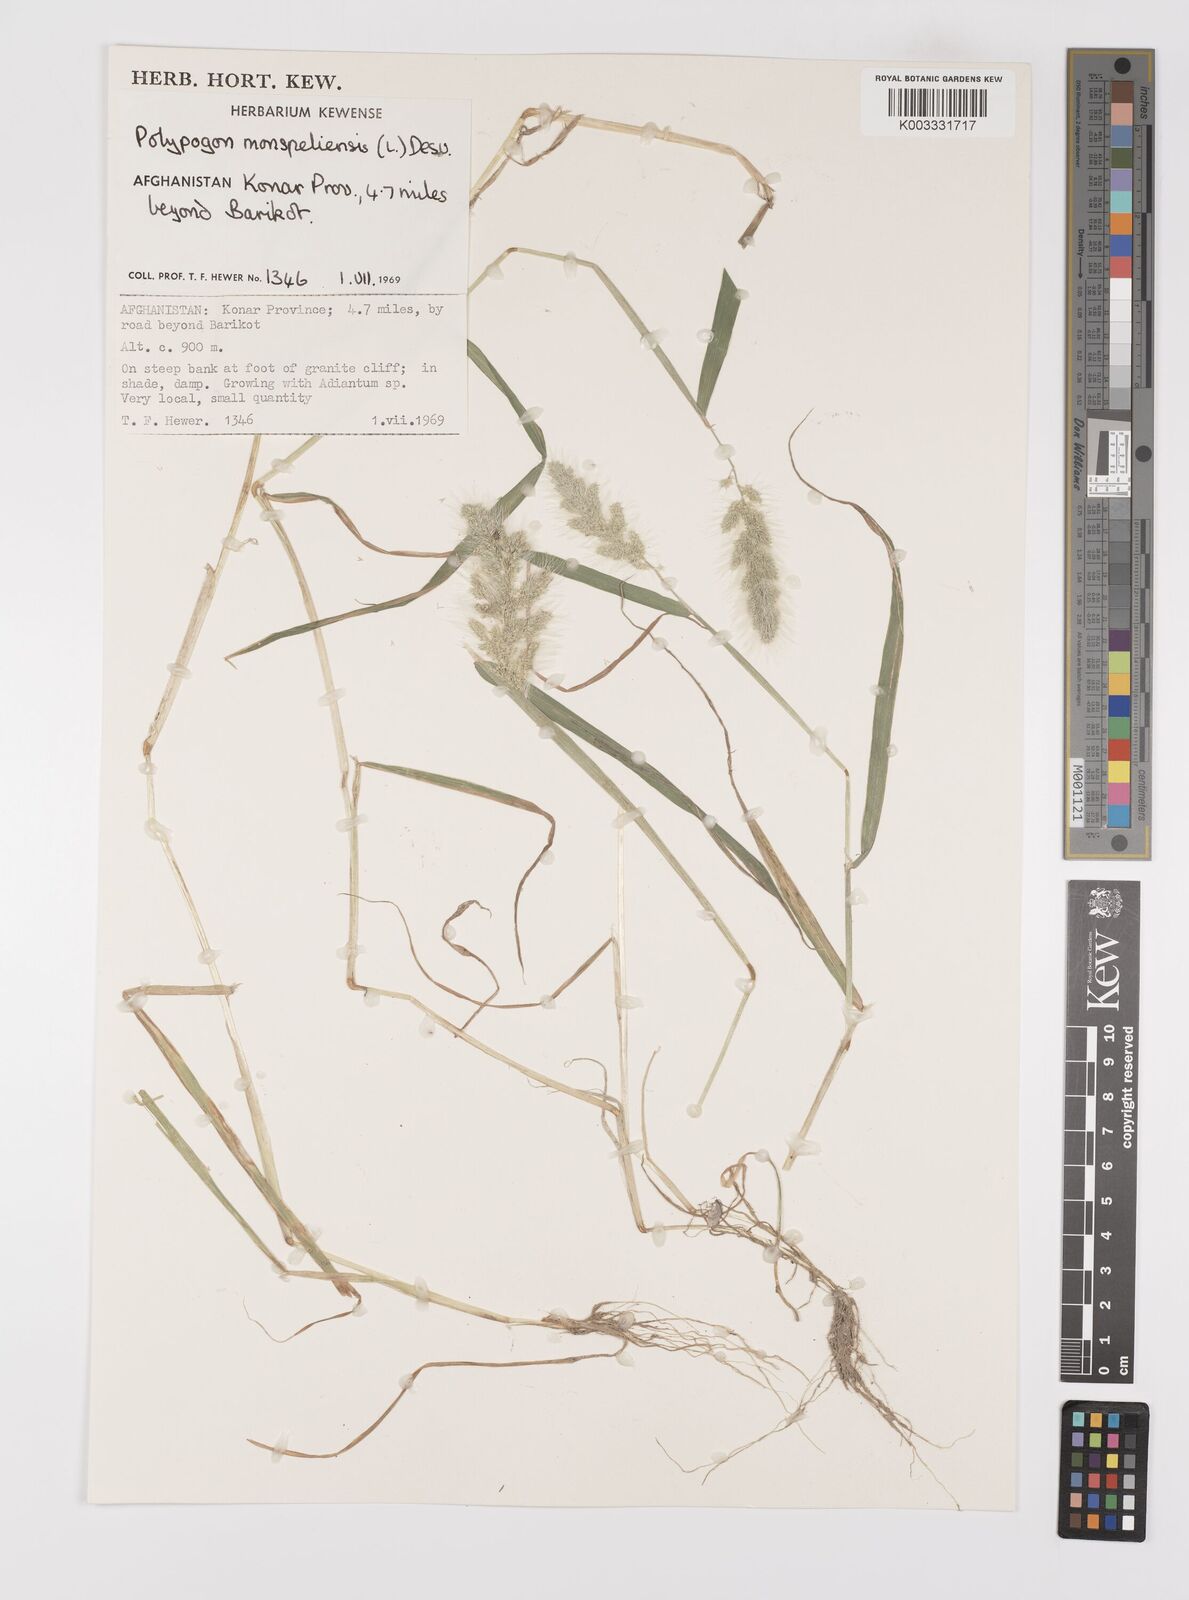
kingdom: Plantae
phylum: Tracheophyta
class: Liliopsida
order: Poales
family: Poaceae
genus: Polypogon
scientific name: Polypogon monspeliensis
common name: Annual rabbitsfoot grass
